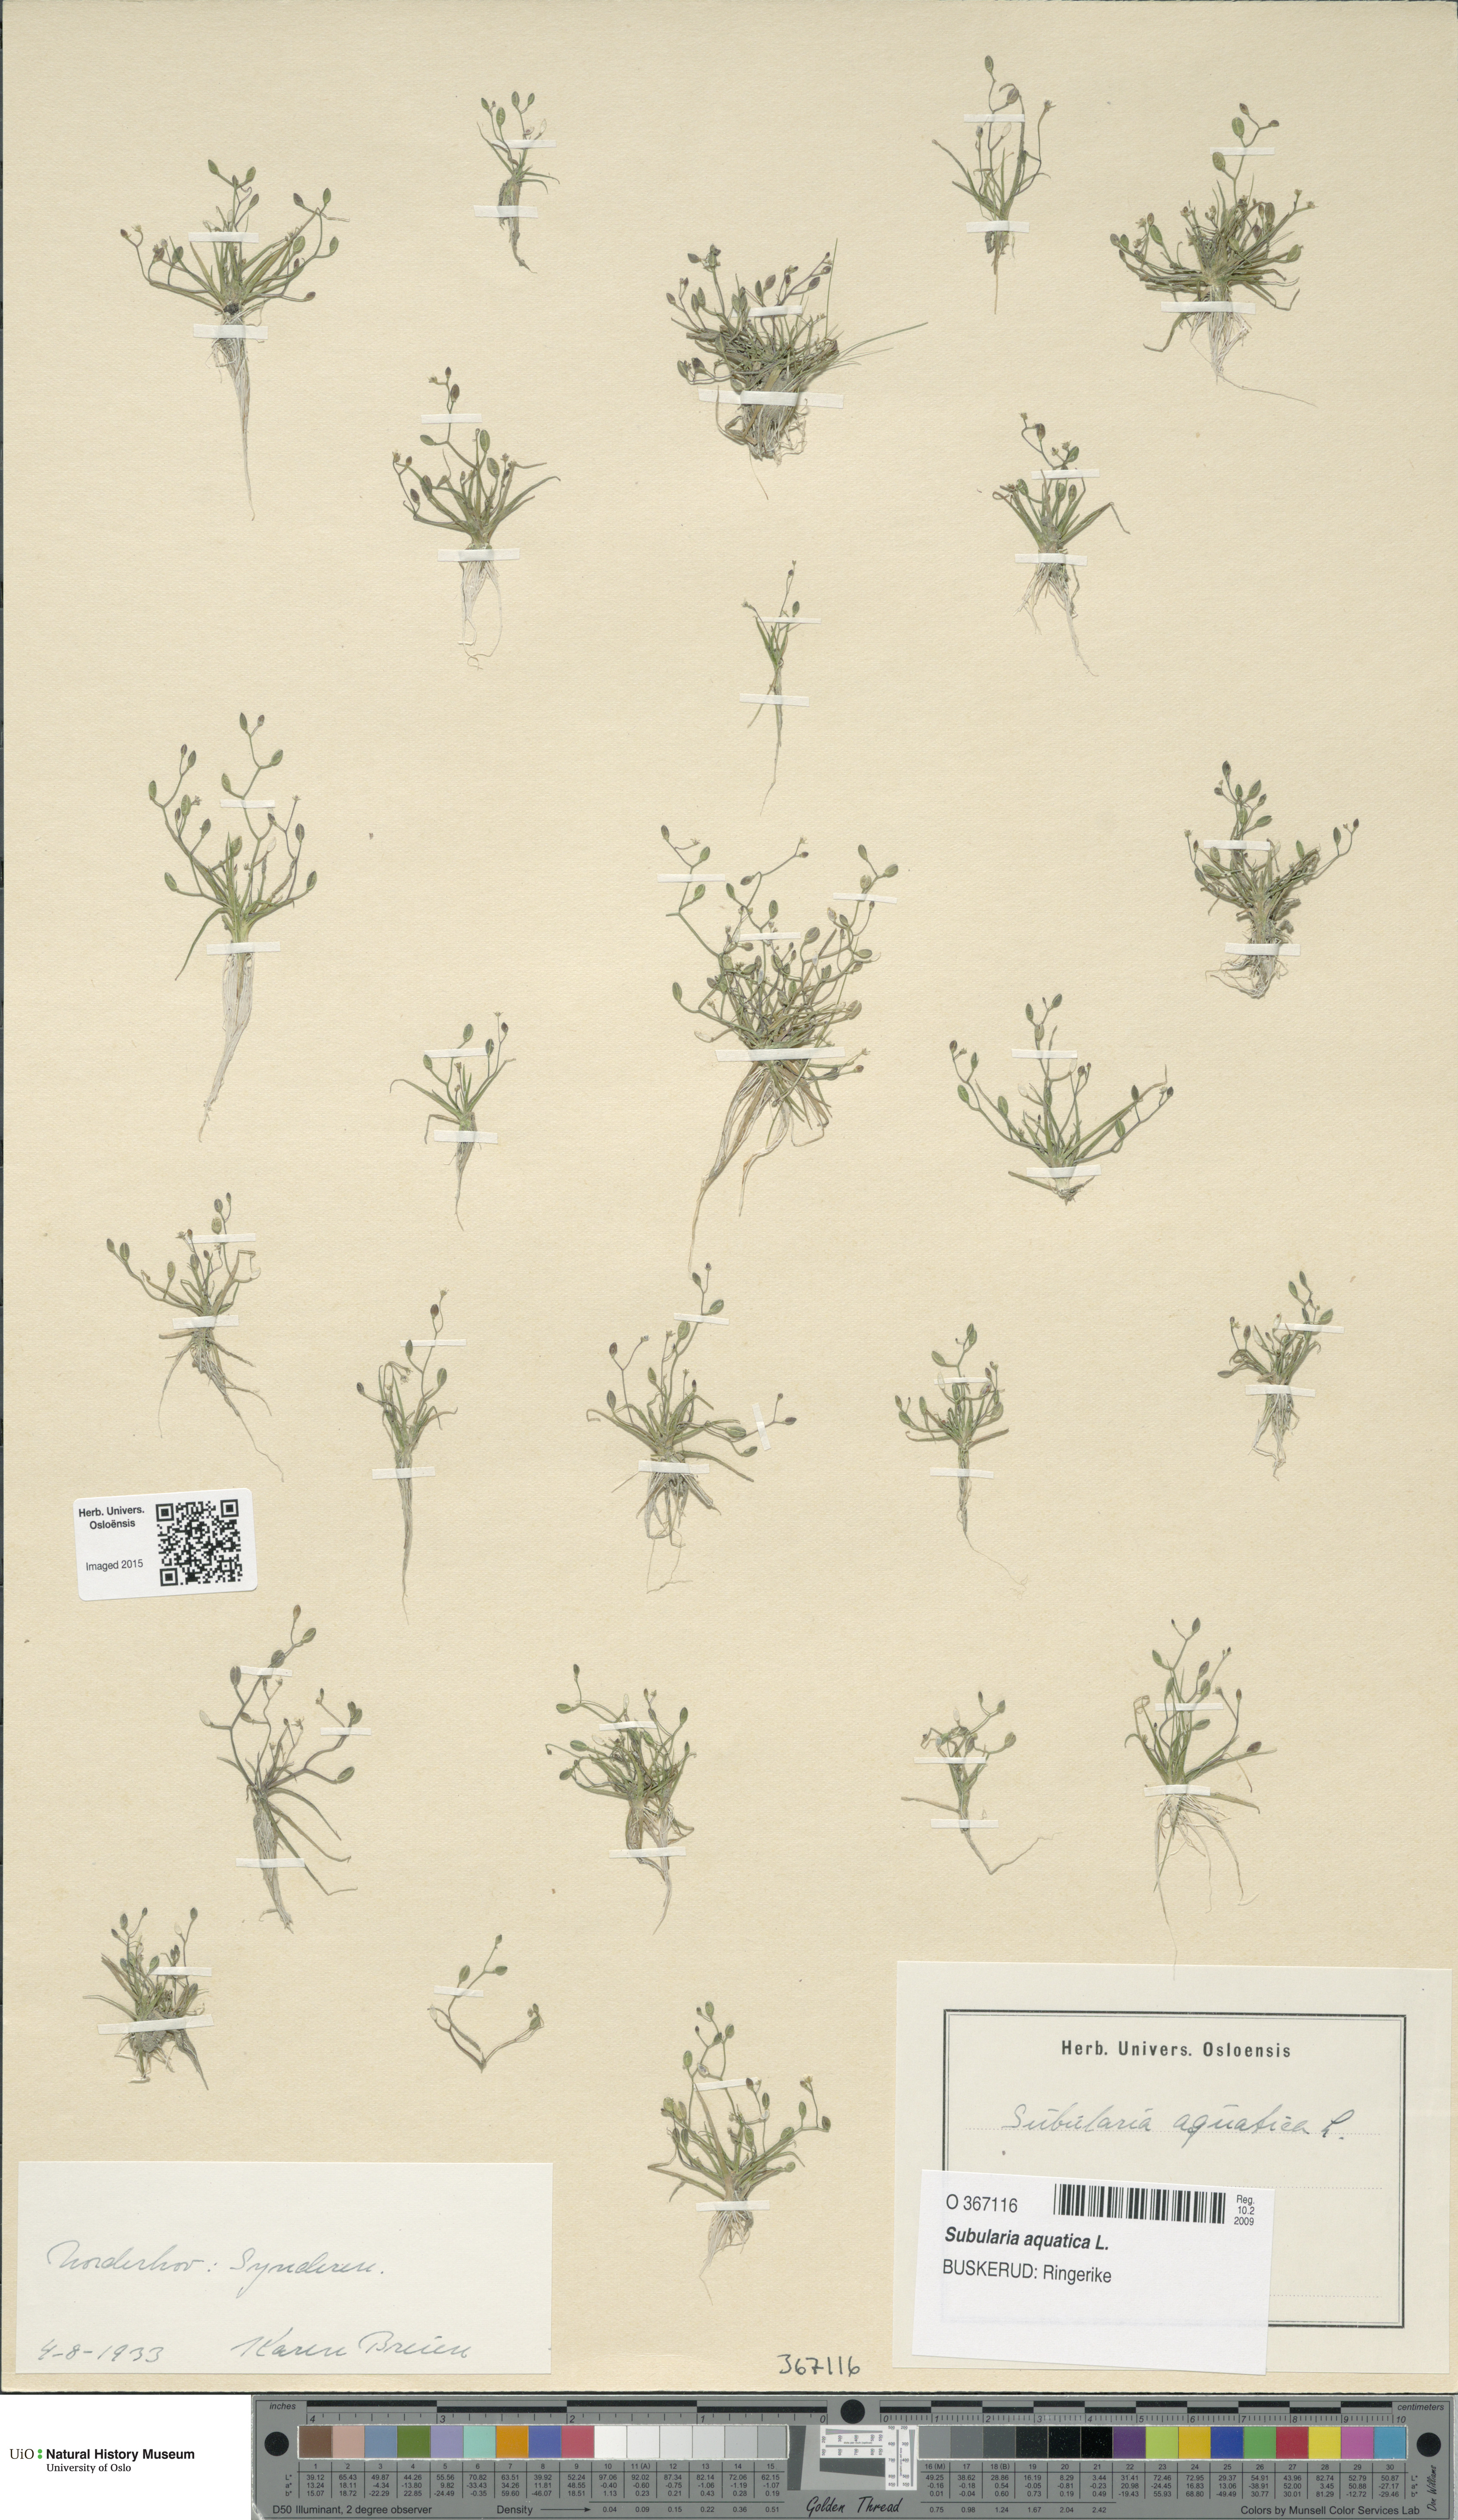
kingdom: Plantae
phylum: Tracheophyta
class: Magnoliopsida
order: Brassicales
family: Brassicaceae
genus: Subularia
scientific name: Subularia aquatica
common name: Awlwort
